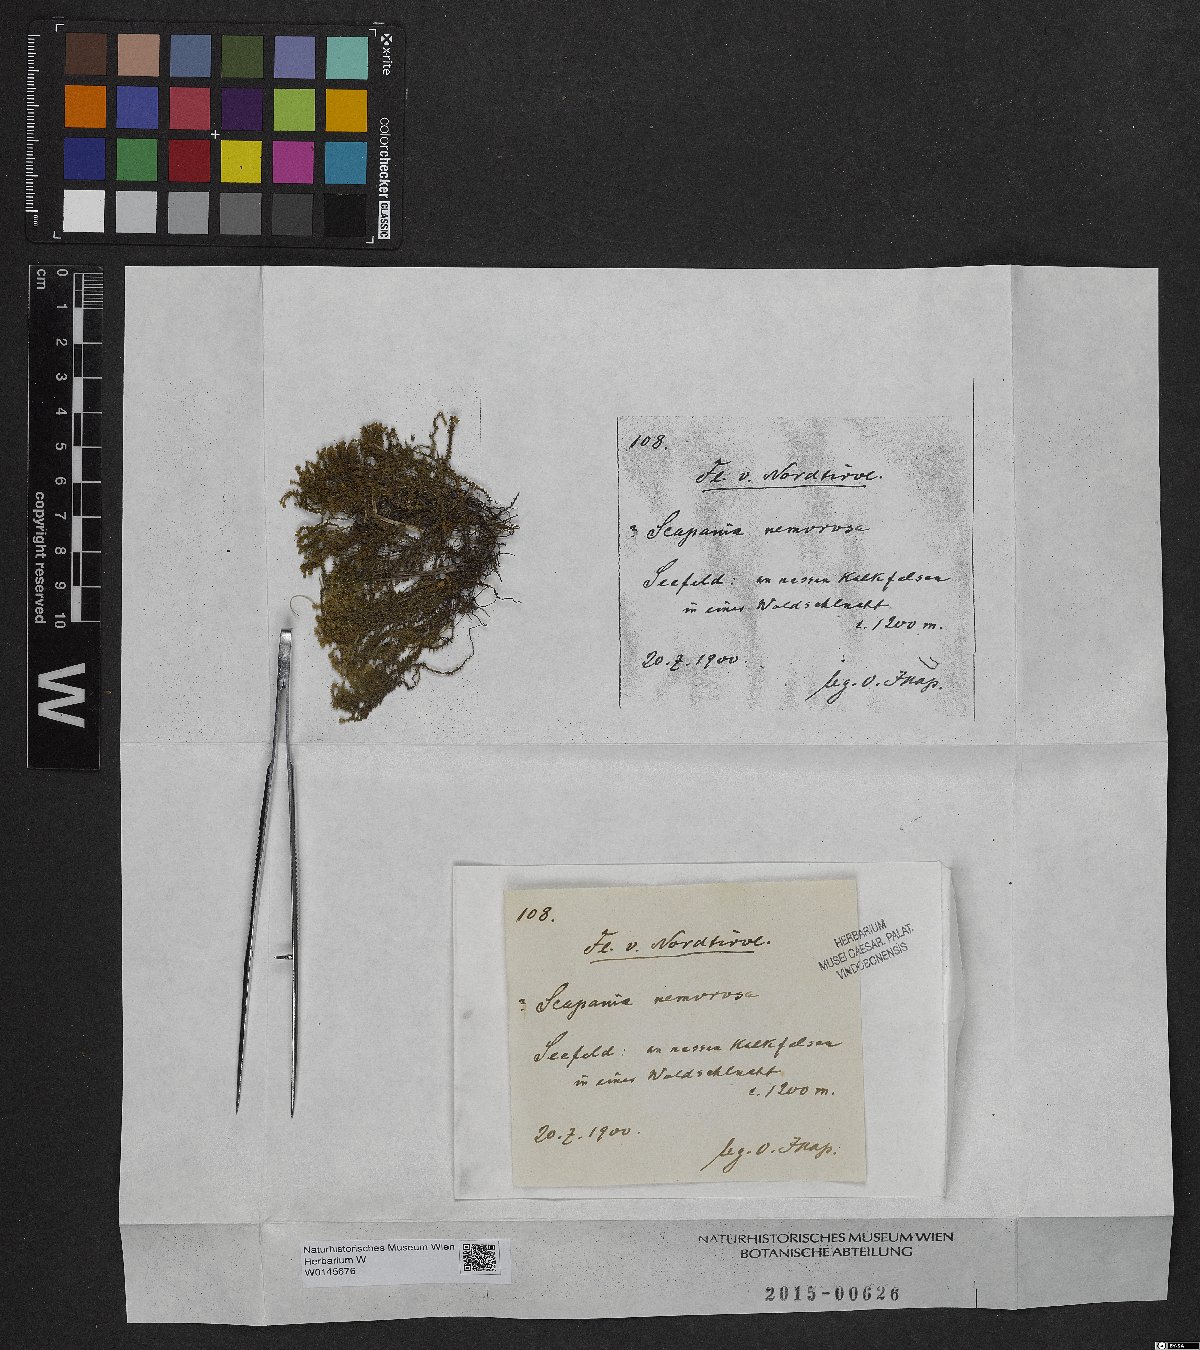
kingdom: Plantae
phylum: Marchantiophyta
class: Jungermanniopsida
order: Jungermanniales
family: Scapaniaceae
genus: Scapania
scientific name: Scapania nemorea
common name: Grove earwort
